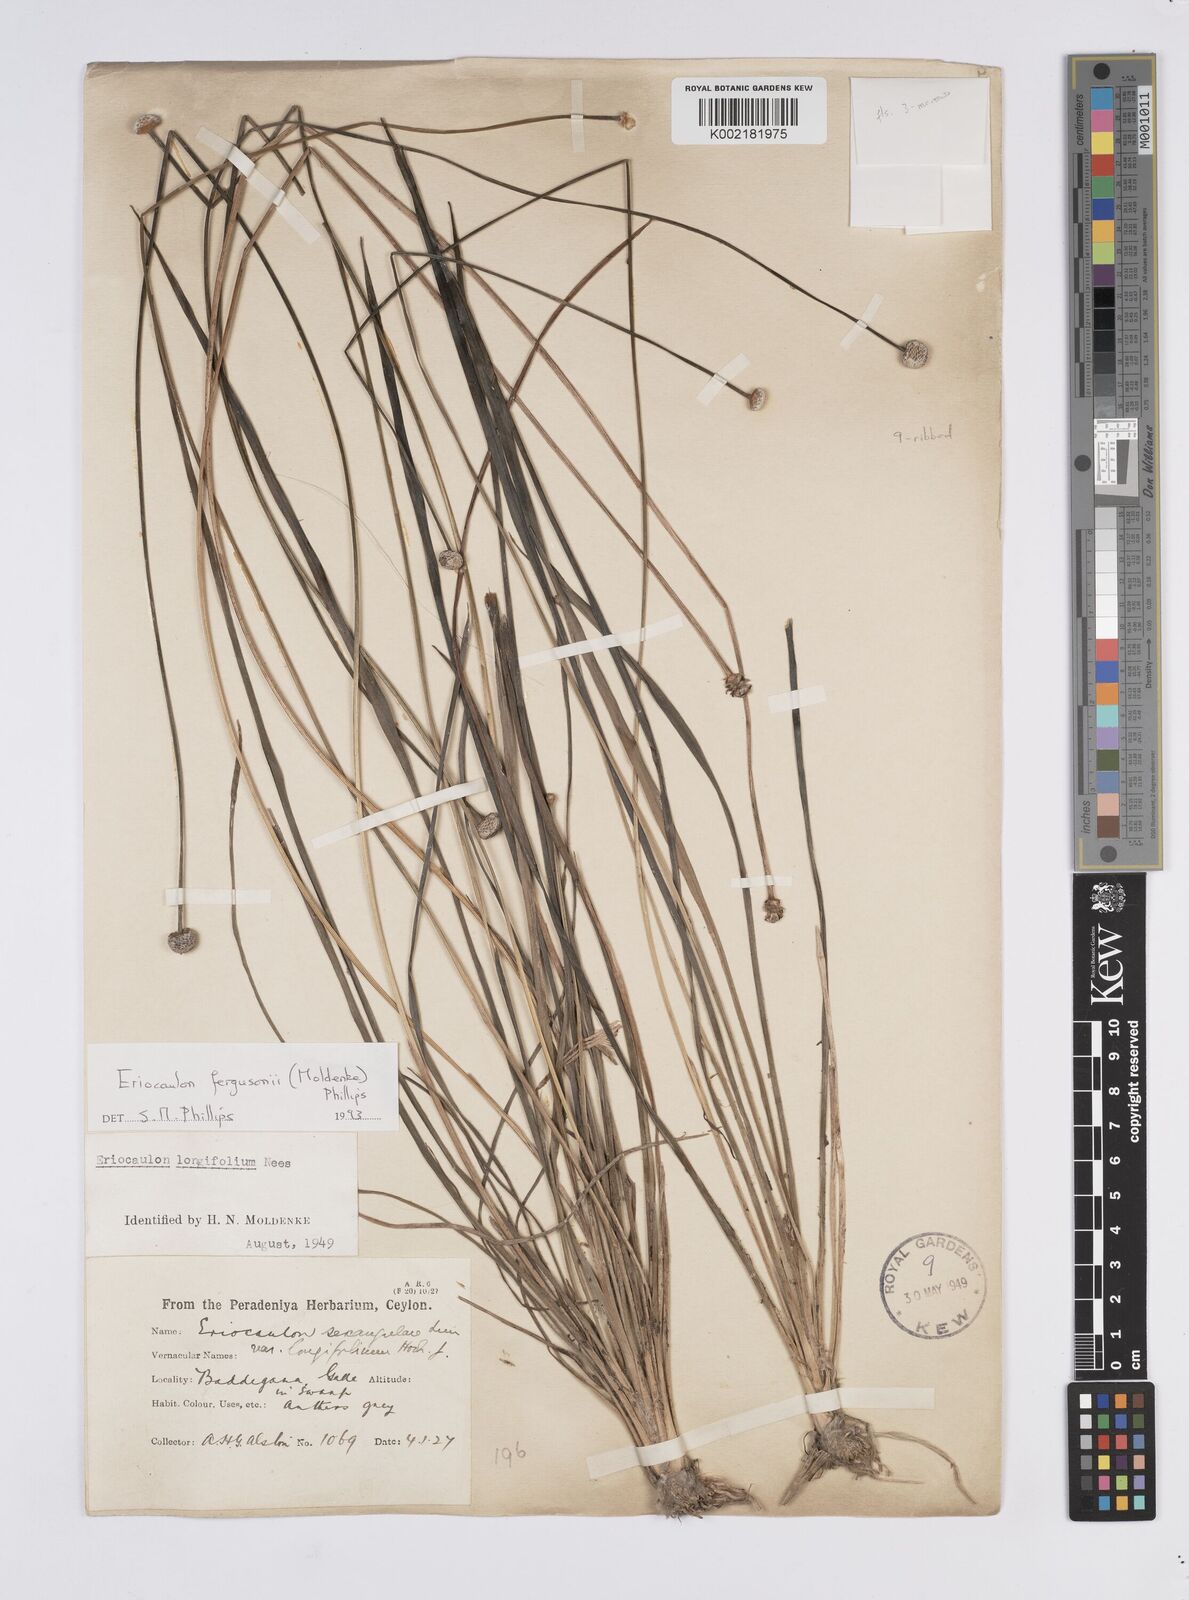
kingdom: Plantae
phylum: Tracheophyta
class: Liliopsida
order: Poales
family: Eriocaulaceae
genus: Eriocaulon
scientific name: Eriocaulon sexangulare
